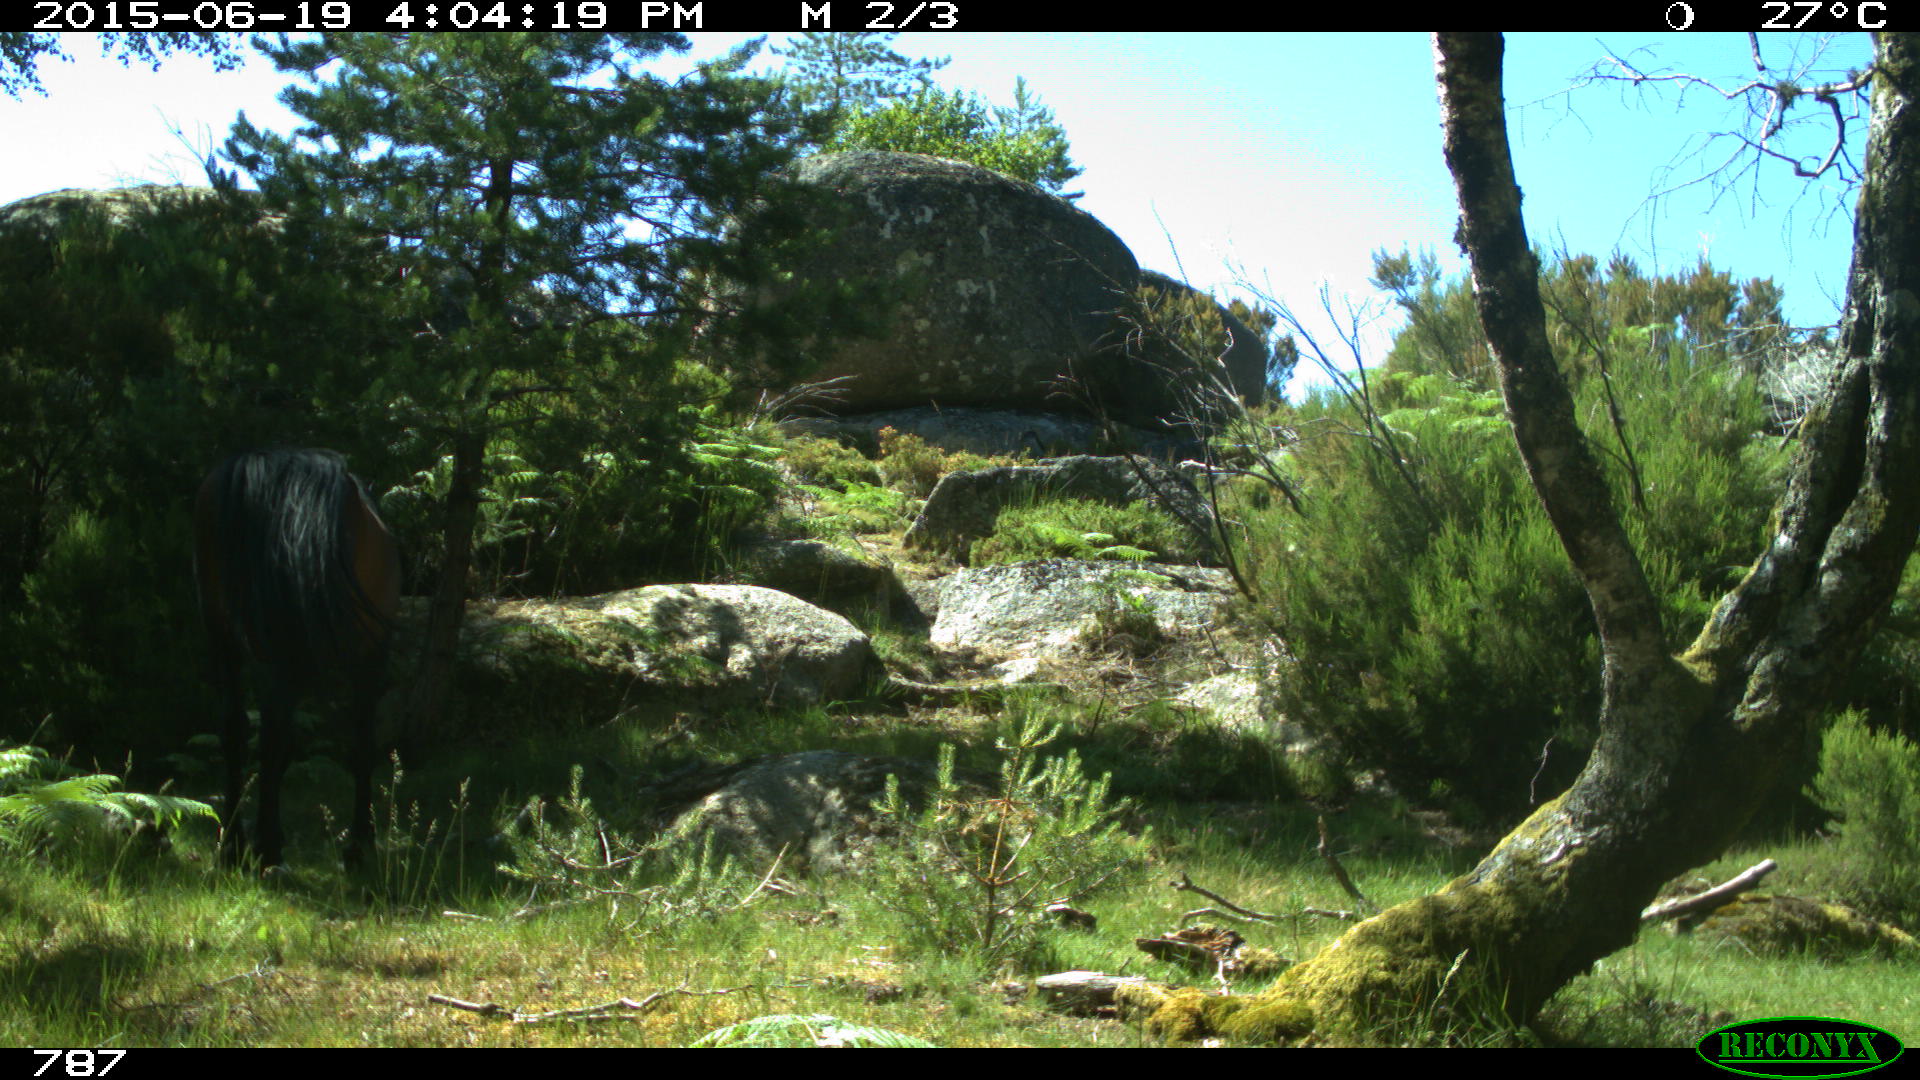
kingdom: Animalia
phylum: Chordata
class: Mammalia
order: Perissodactyla
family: Equidae
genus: Equus
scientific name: Equus caballus
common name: Horse
